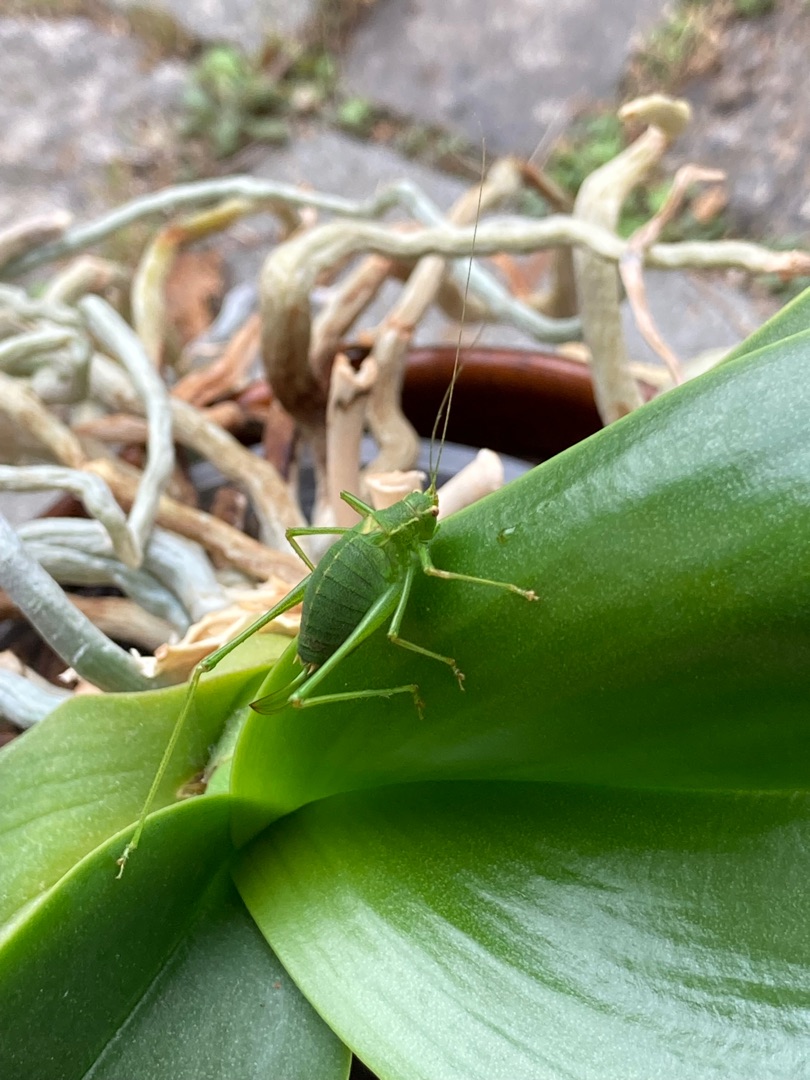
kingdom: Animalia
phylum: Arthropoda
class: Insecta
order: Orthoptera
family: Tettigoniidae
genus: Leptophyes
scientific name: Leptophyes punctatissima
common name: Krumknivgræshoppe
